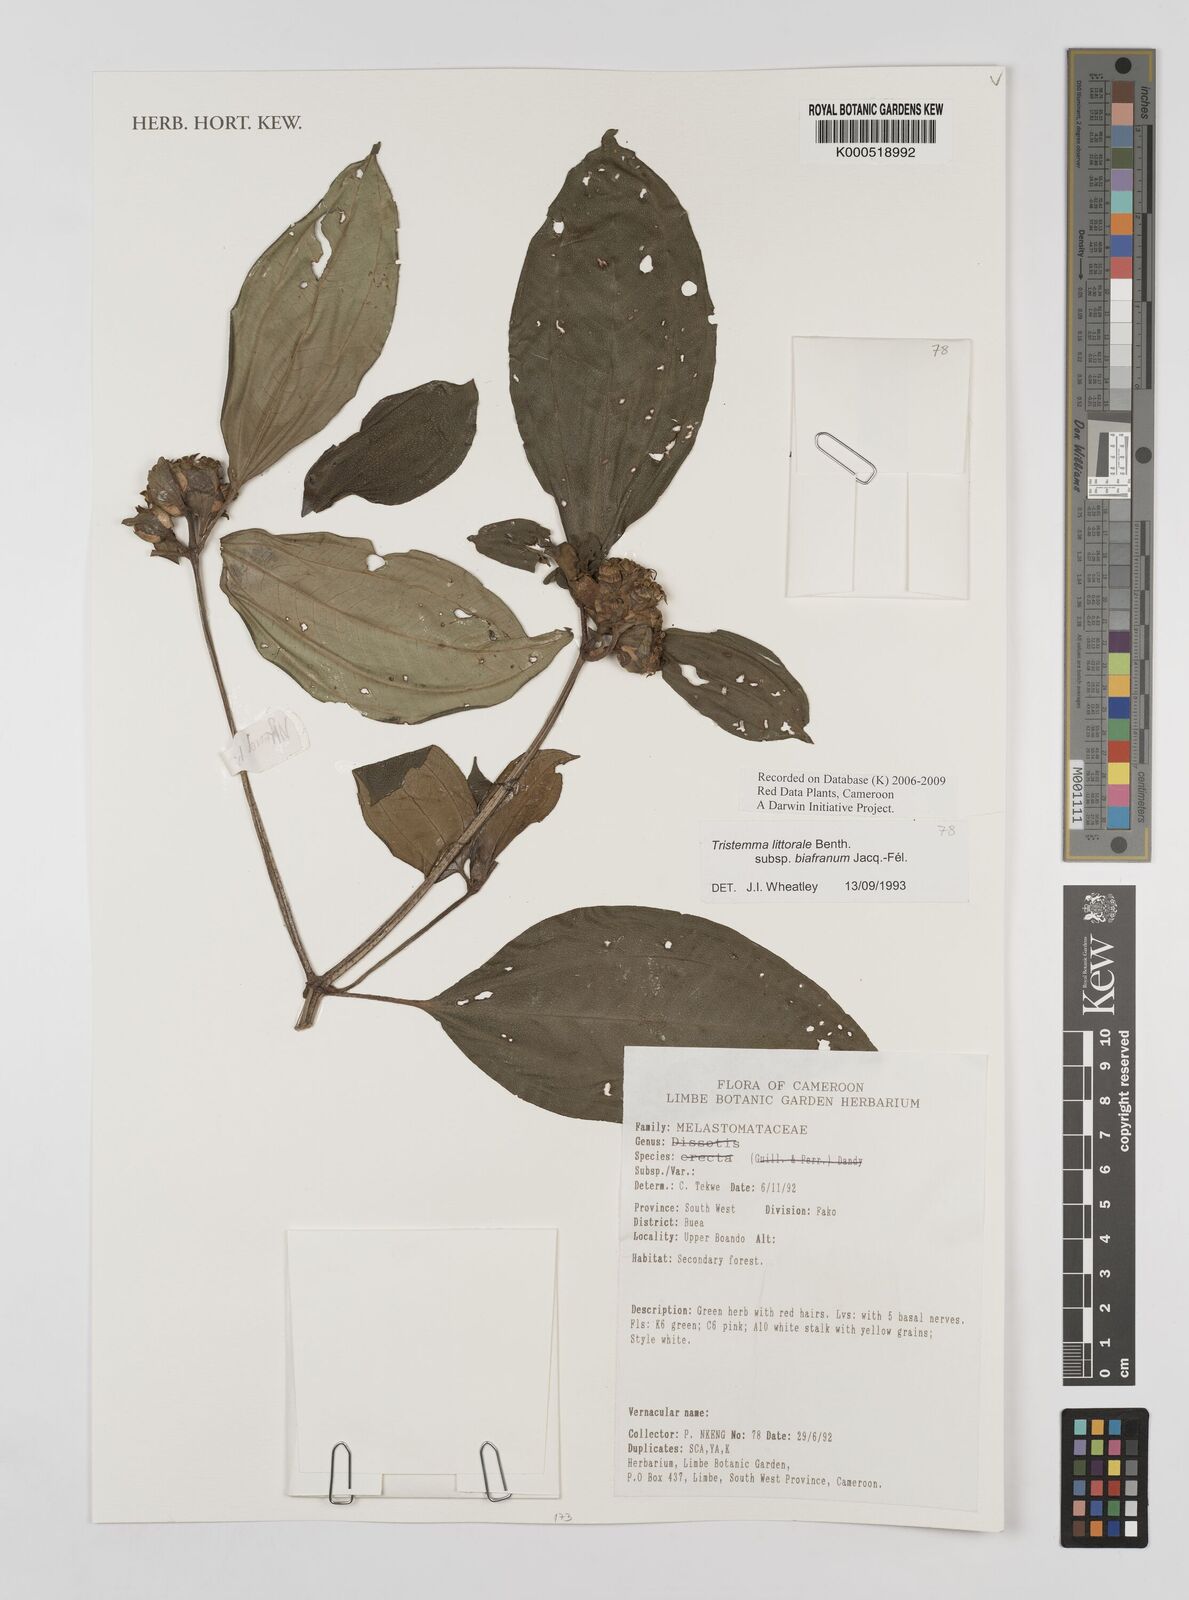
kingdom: Plantae
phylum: Tracheophyta
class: Magnoliopsida
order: Myrtales
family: Melastomataceae
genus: Tristemma
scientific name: Tristemma littorale
